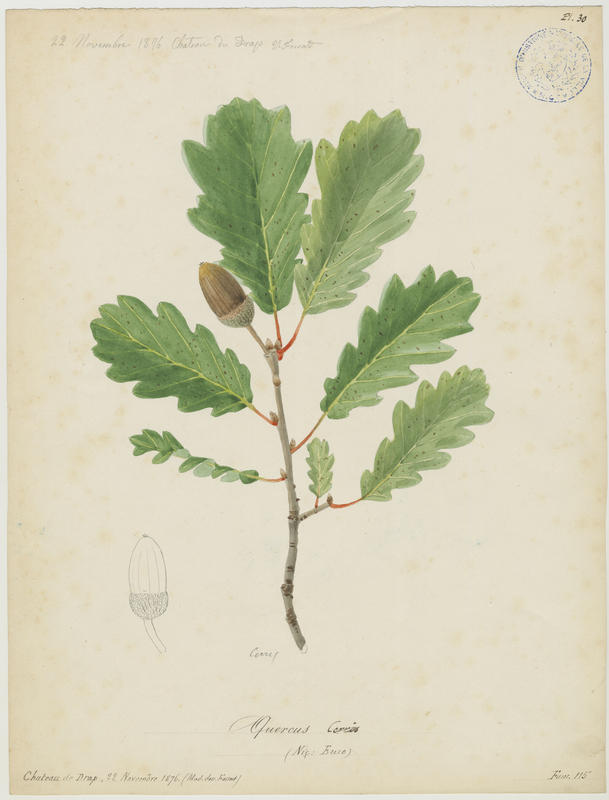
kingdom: Plantae
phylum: Tracheophyta
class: Magnoliopsida
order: Fagales
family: Fagaceae
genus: Quercus
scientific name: Quercus cerris
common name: Turkey oak
